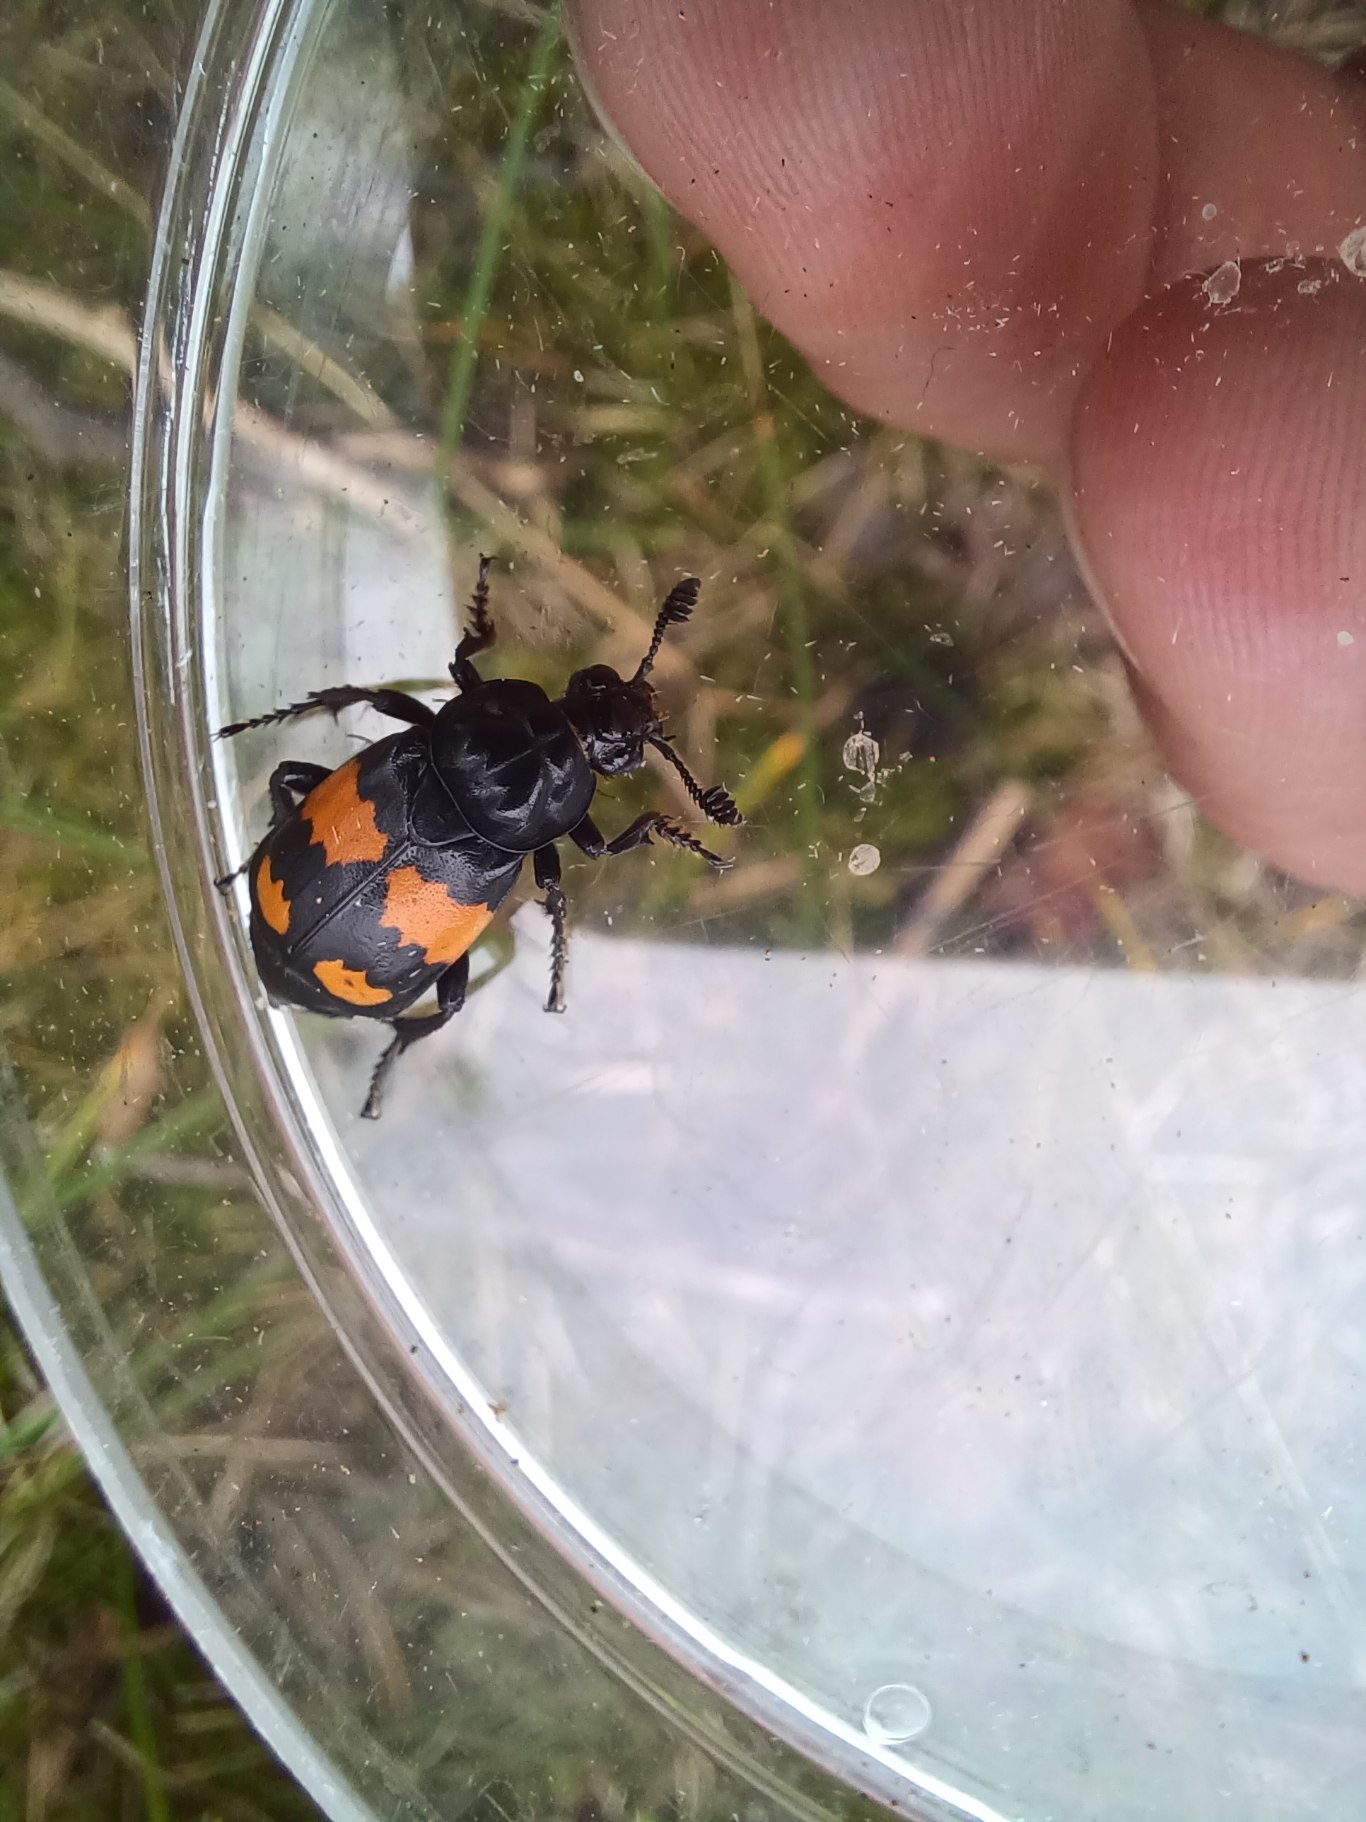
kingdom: Animalia
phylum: Arthropoda
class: Insecta
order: Coleoptera
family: Staphylinidae
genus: Nicrophorus
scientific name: Nicrophorus vespilloides
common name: Sortkøllet ådselgraver
